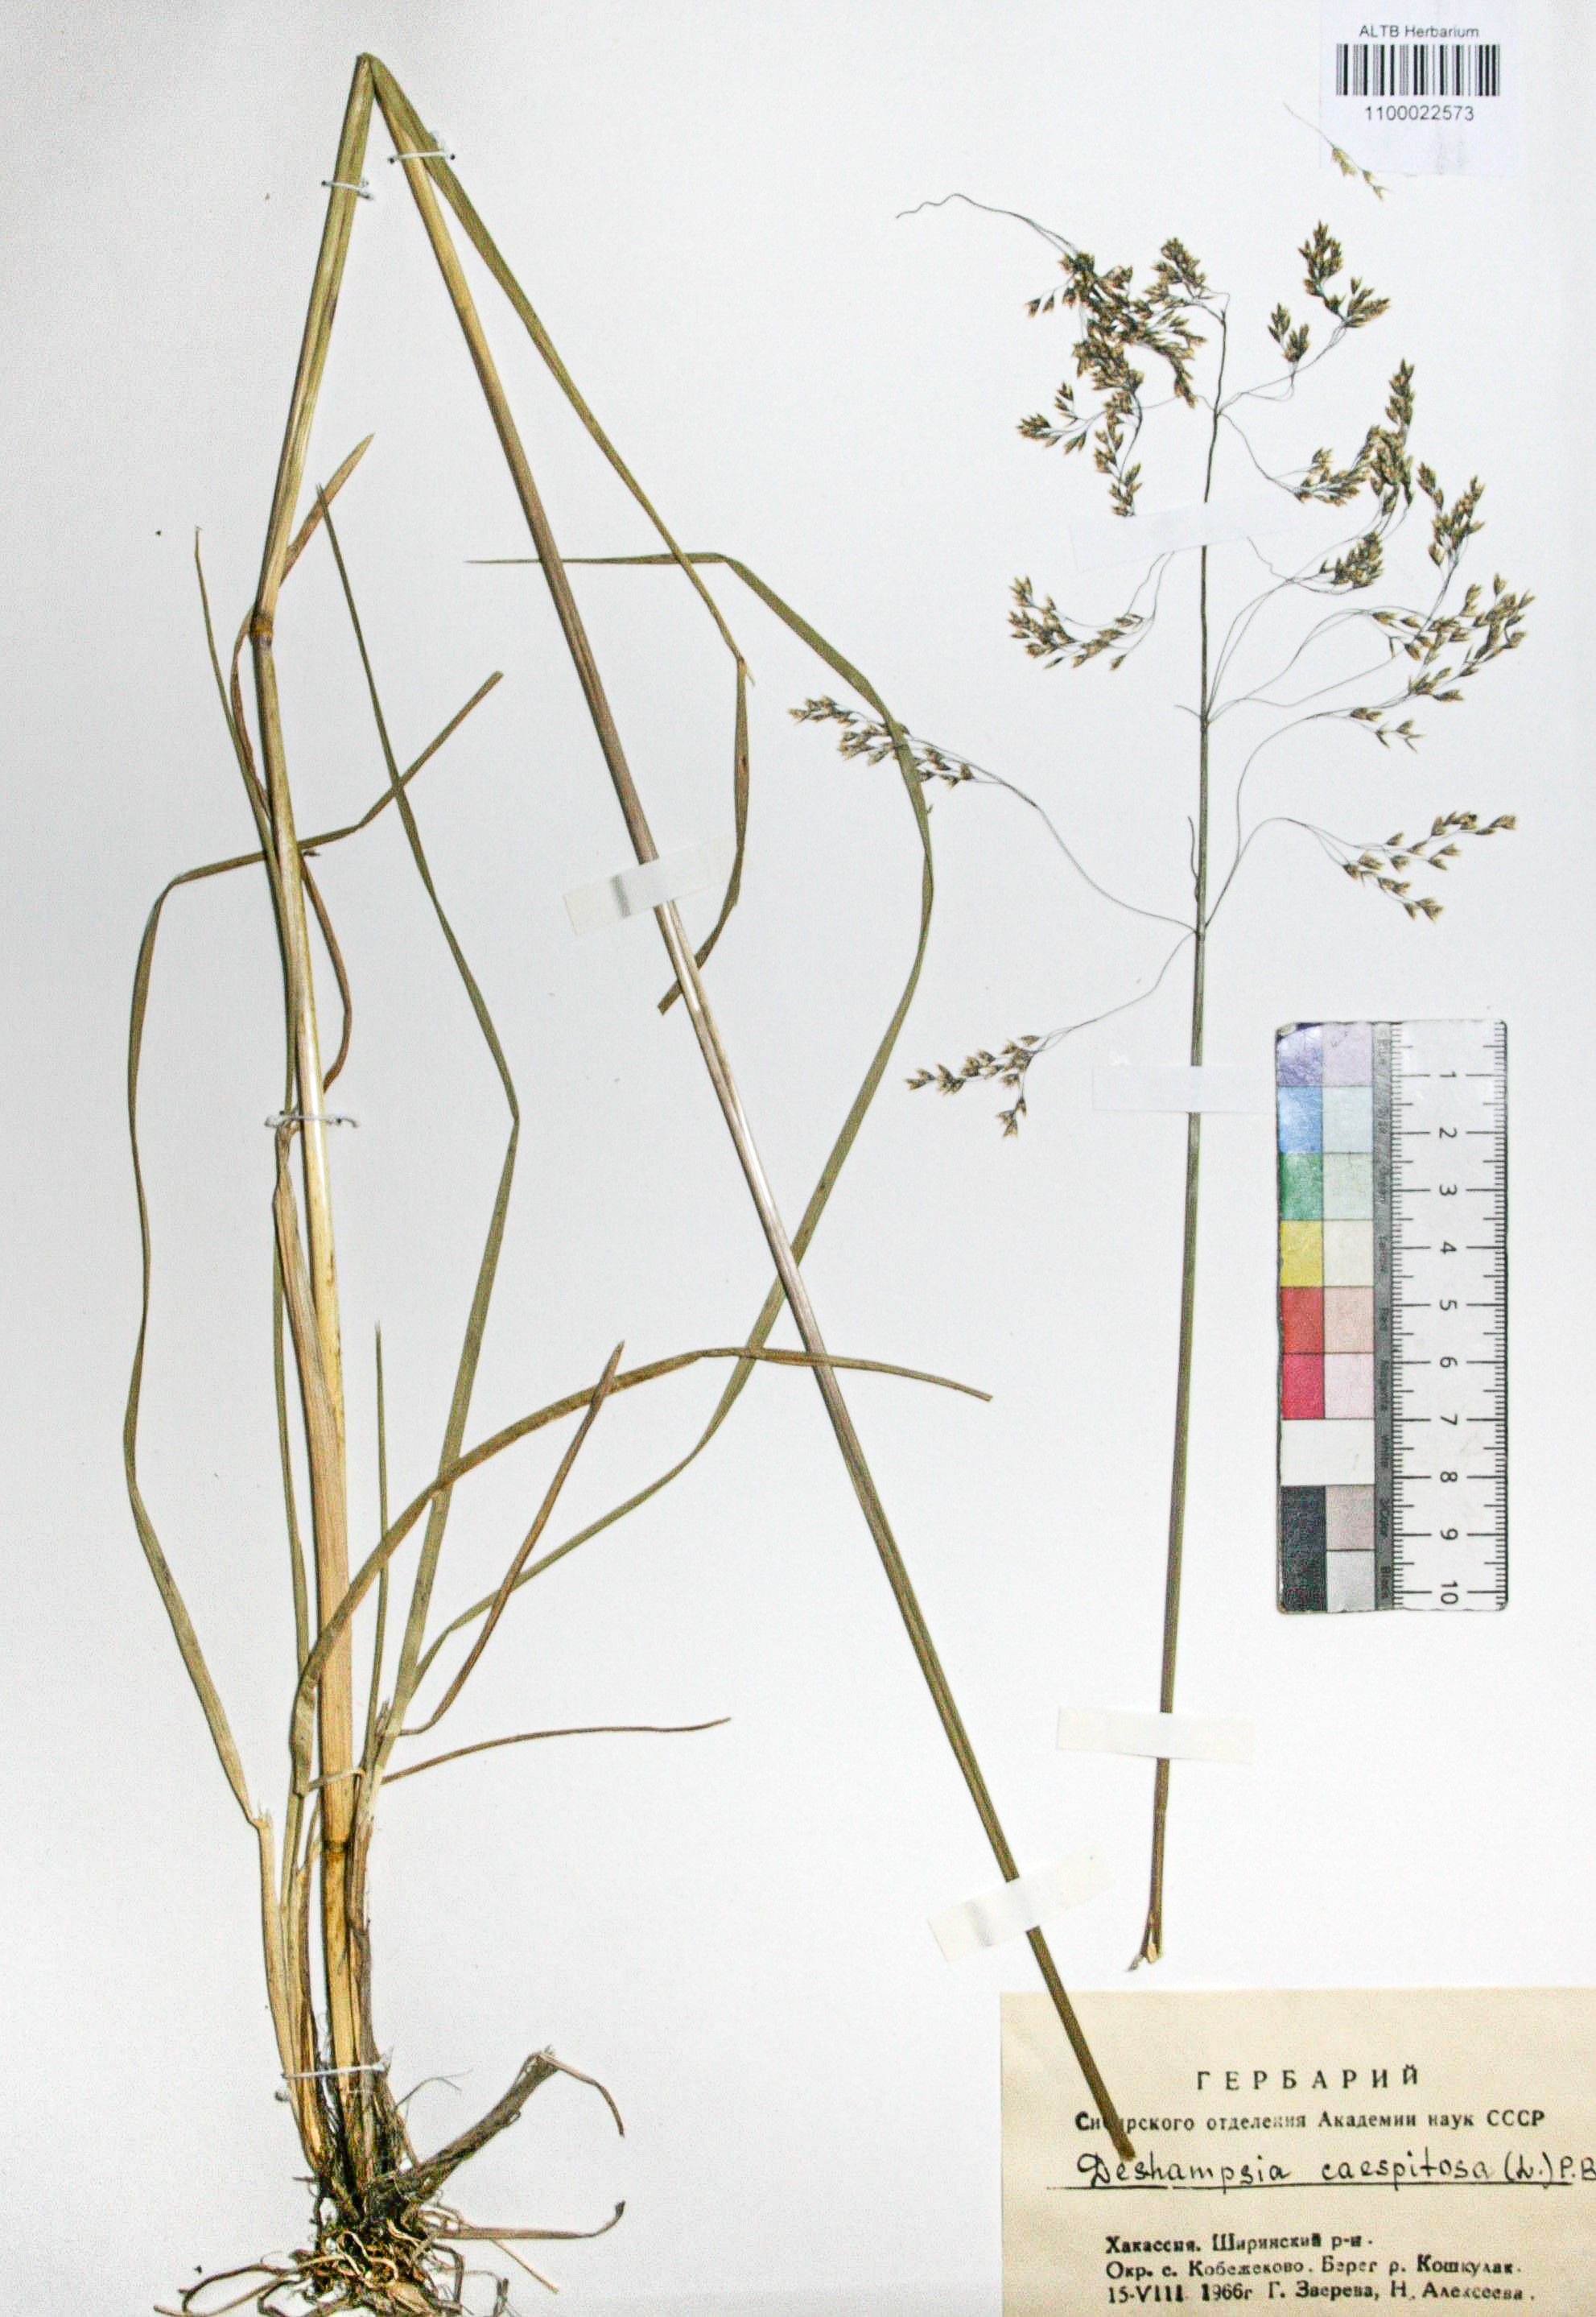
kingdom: Plantae
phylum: Tracheophyta
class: Liliopsida
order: Poales
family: Poaceae
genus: Deschampsia
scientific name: Deschampsia cespitosa
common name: Tufted hair-grass
